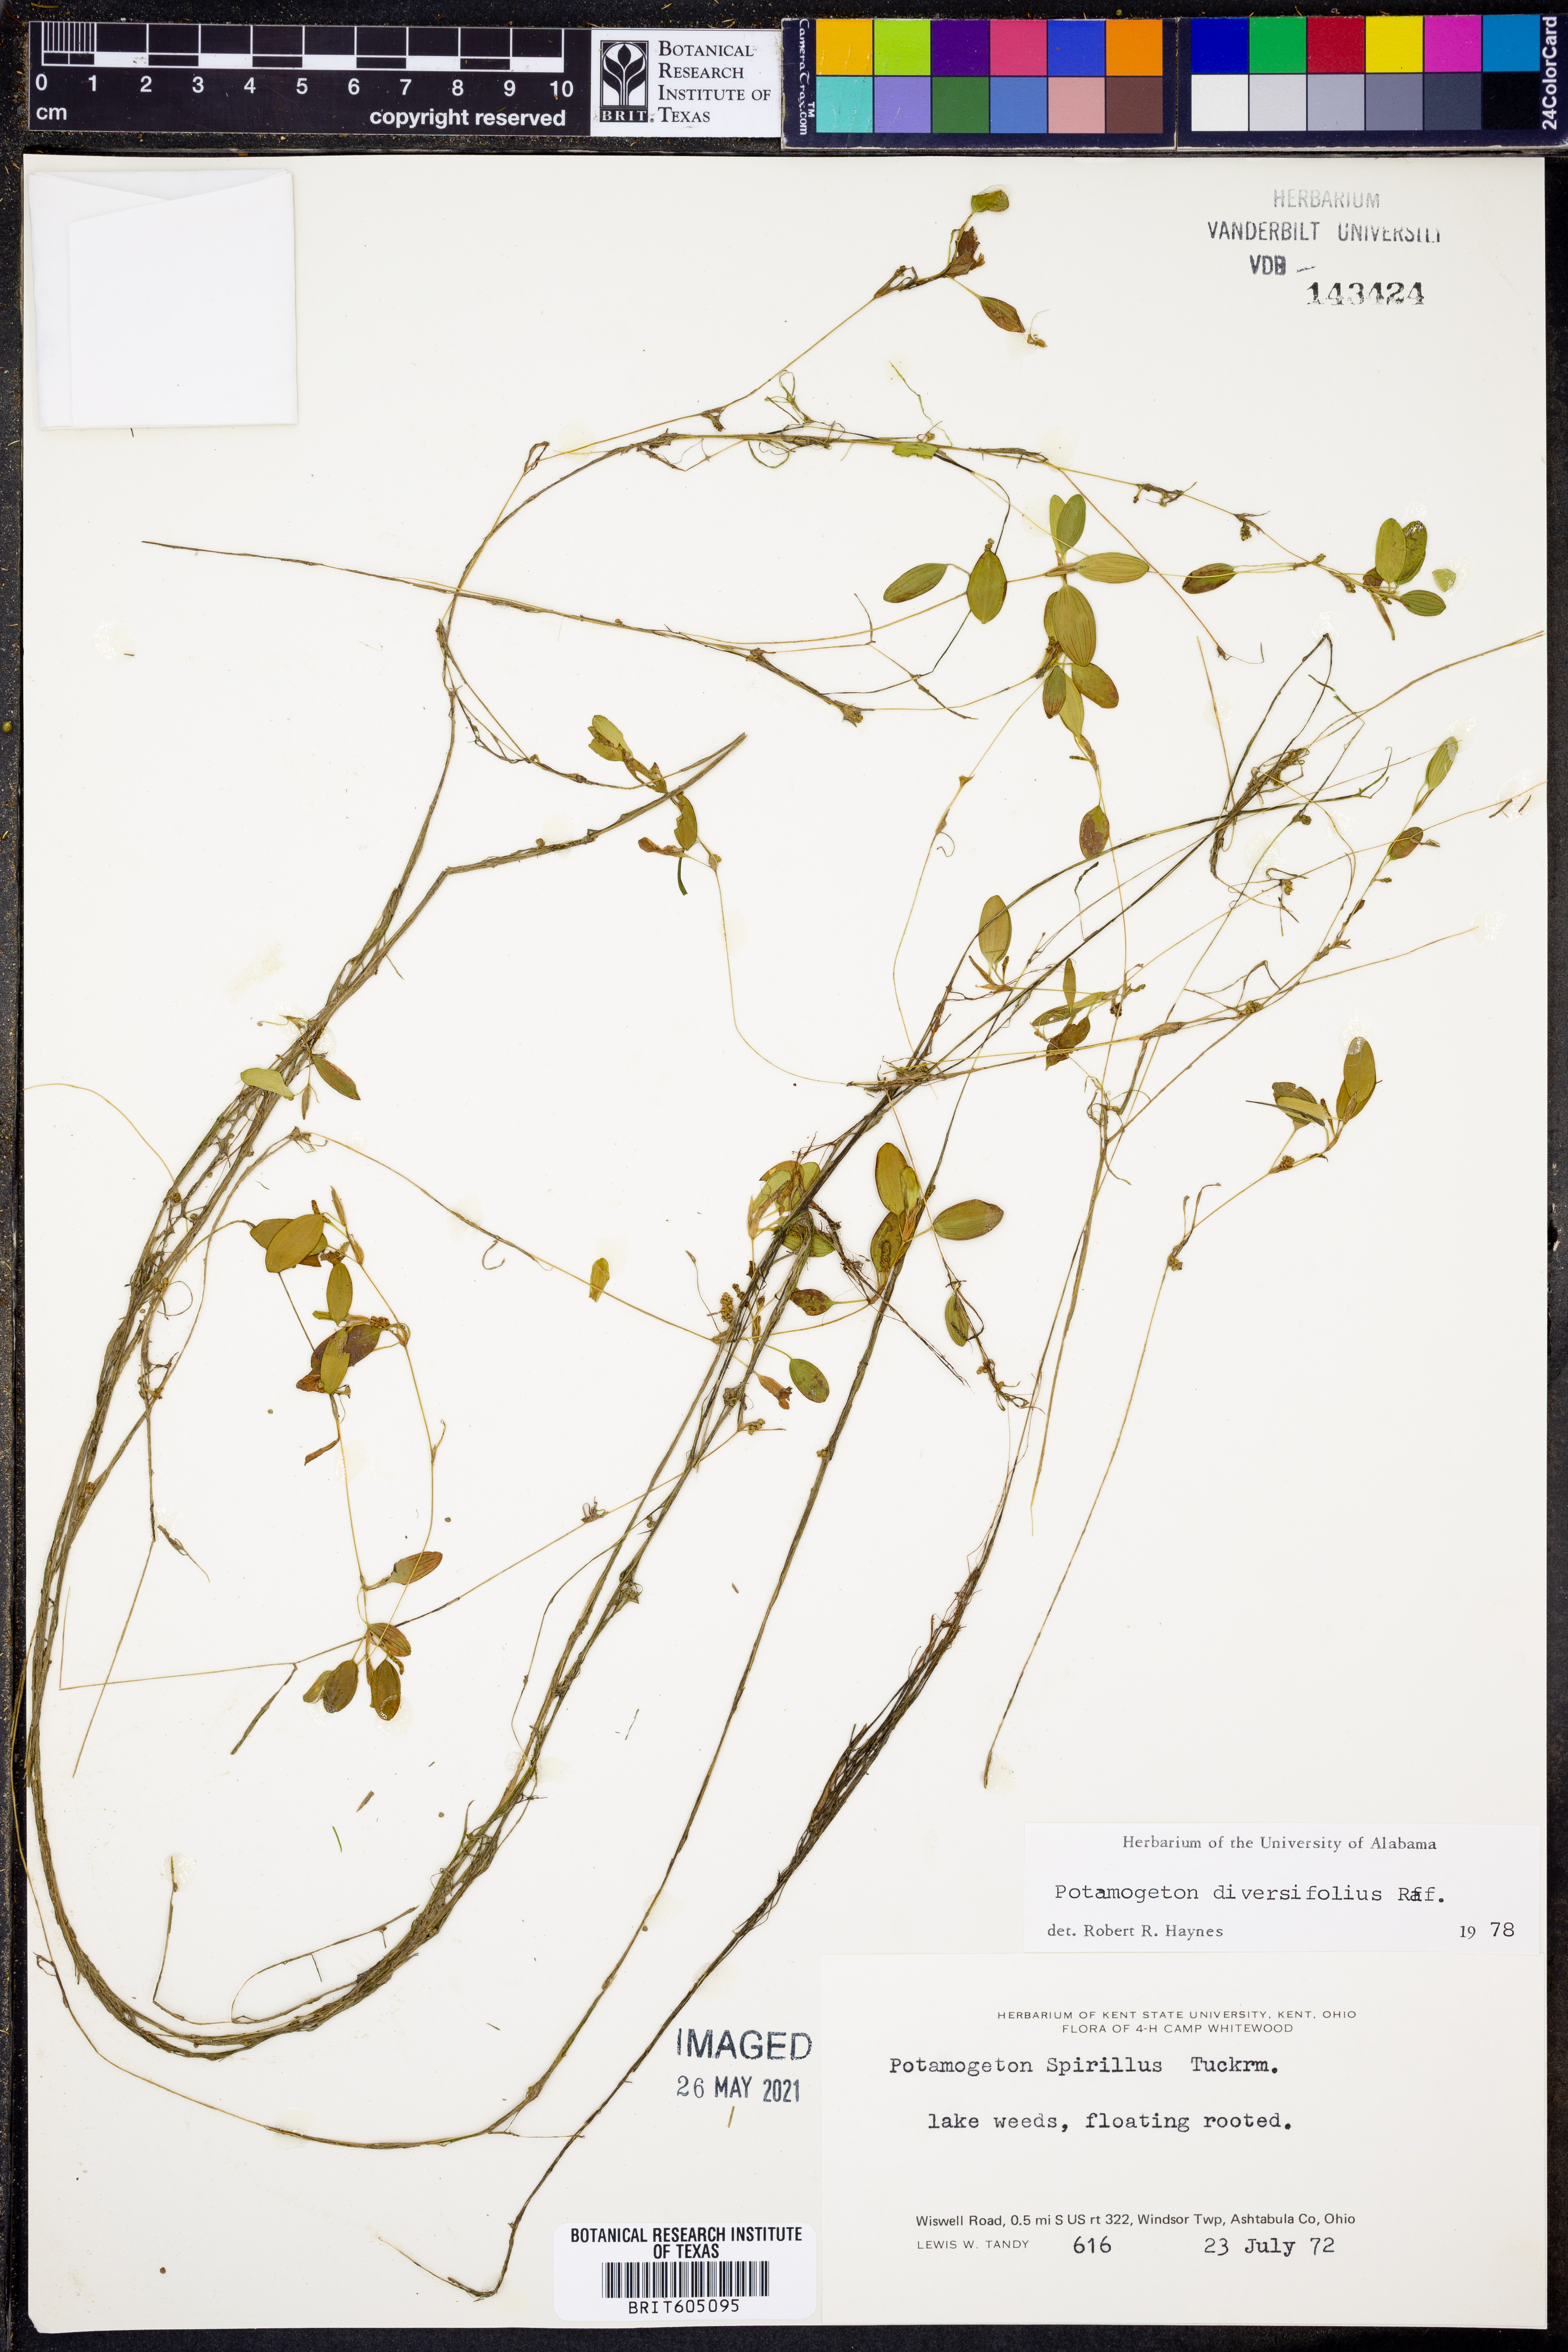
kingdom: Plantae
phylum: Tracheophyta
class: Liliopsida
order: Alismatales
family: Potamogetonaceae
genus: Potamogeton
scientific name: Potamogeton diversifolius
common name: Water-thread pondweed
